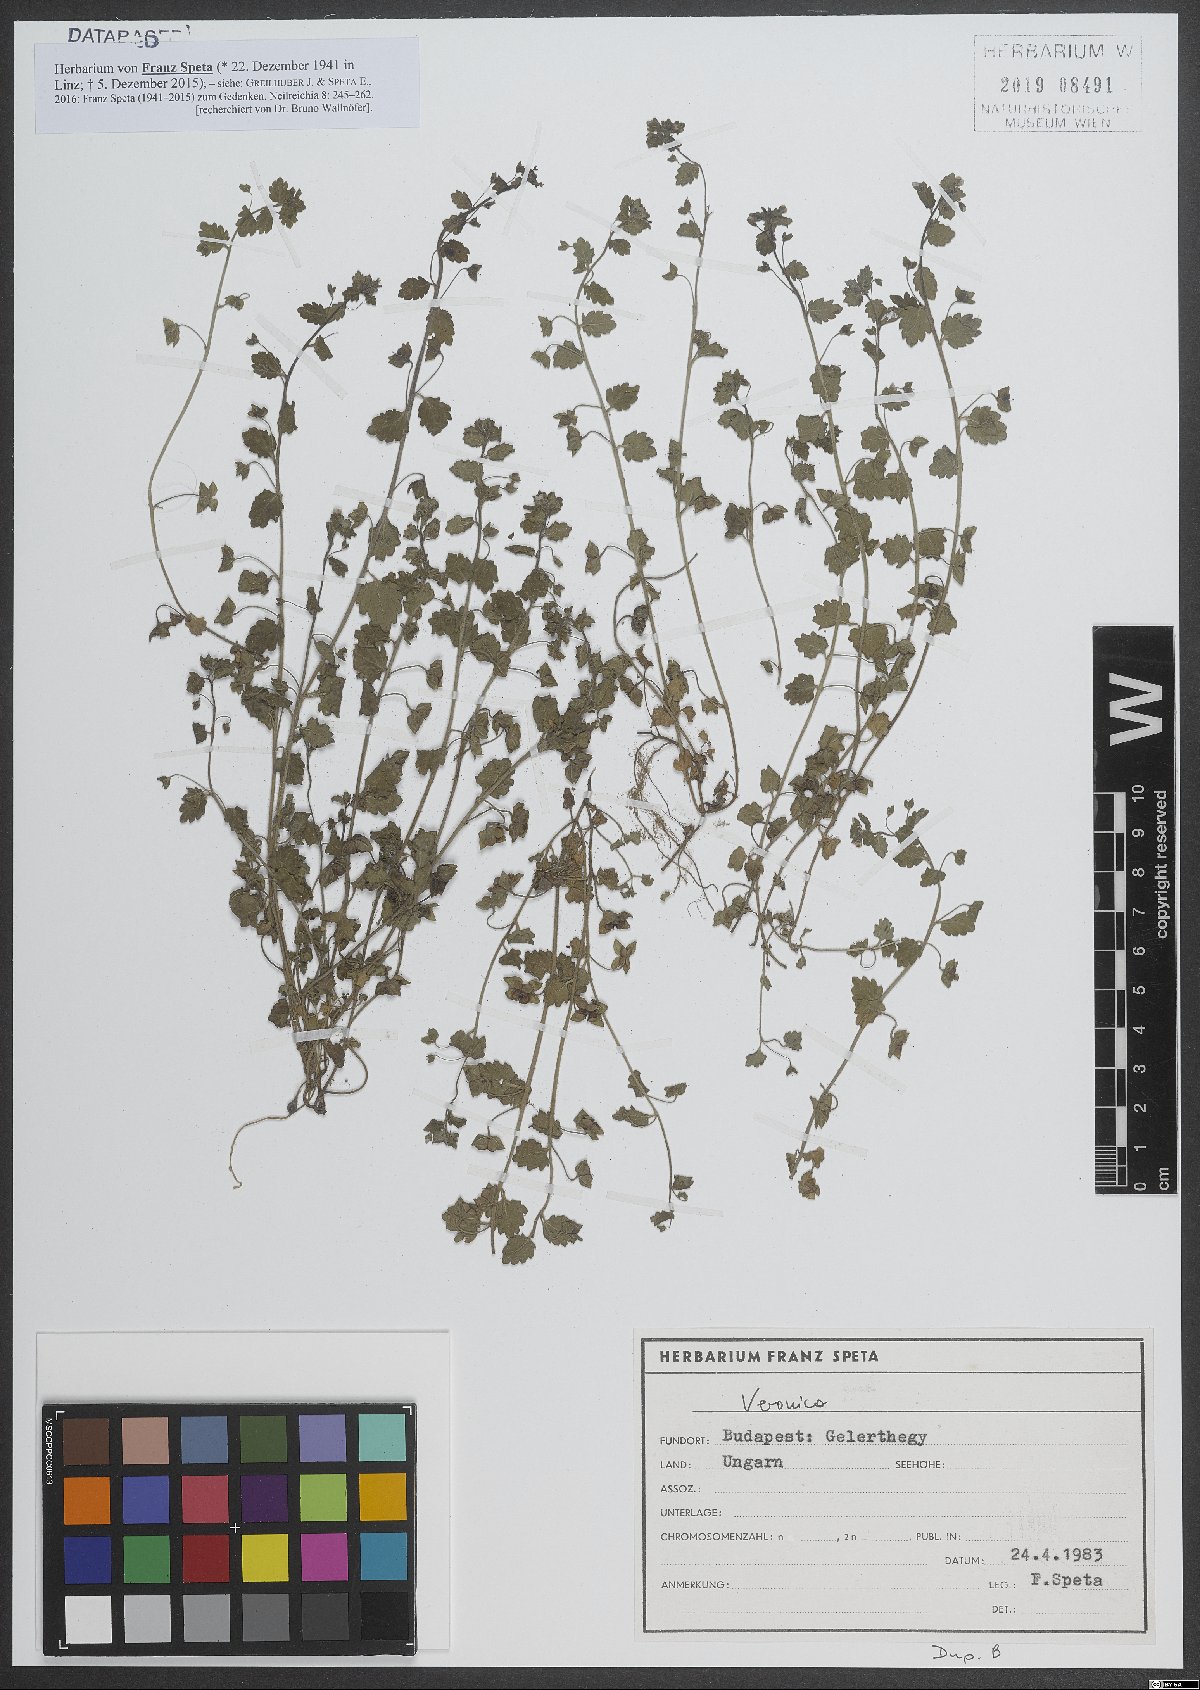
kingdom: Plantae
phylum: Tracheophyta
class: Magnoliopsida
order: Lamiales
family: Plantaginaceae
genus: Veronica
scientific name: Veronica
